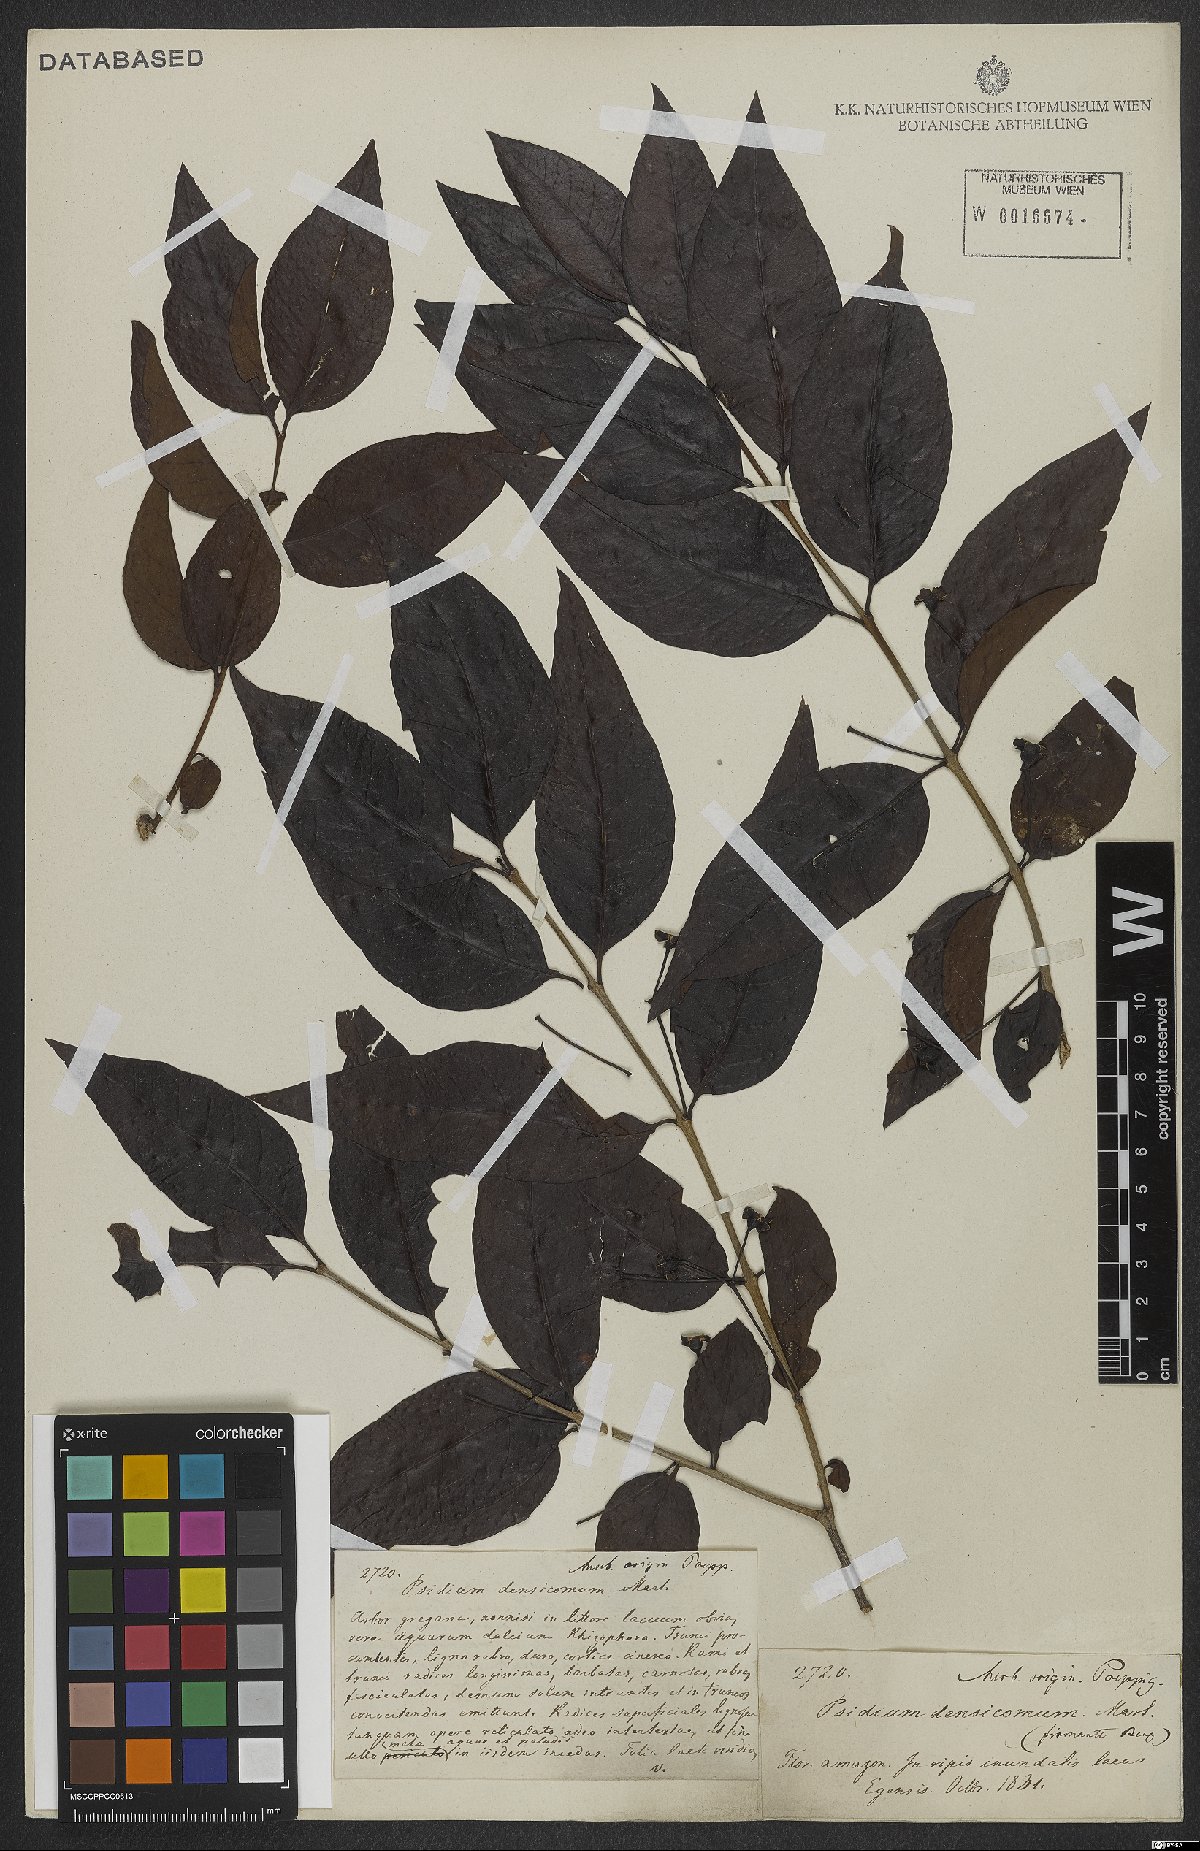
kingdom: Plantae
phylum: Tracheophyta
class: Magnoliopsida
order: Myrtales
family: Myrtaceae
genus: Psidium
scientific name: Psidium densicomum
